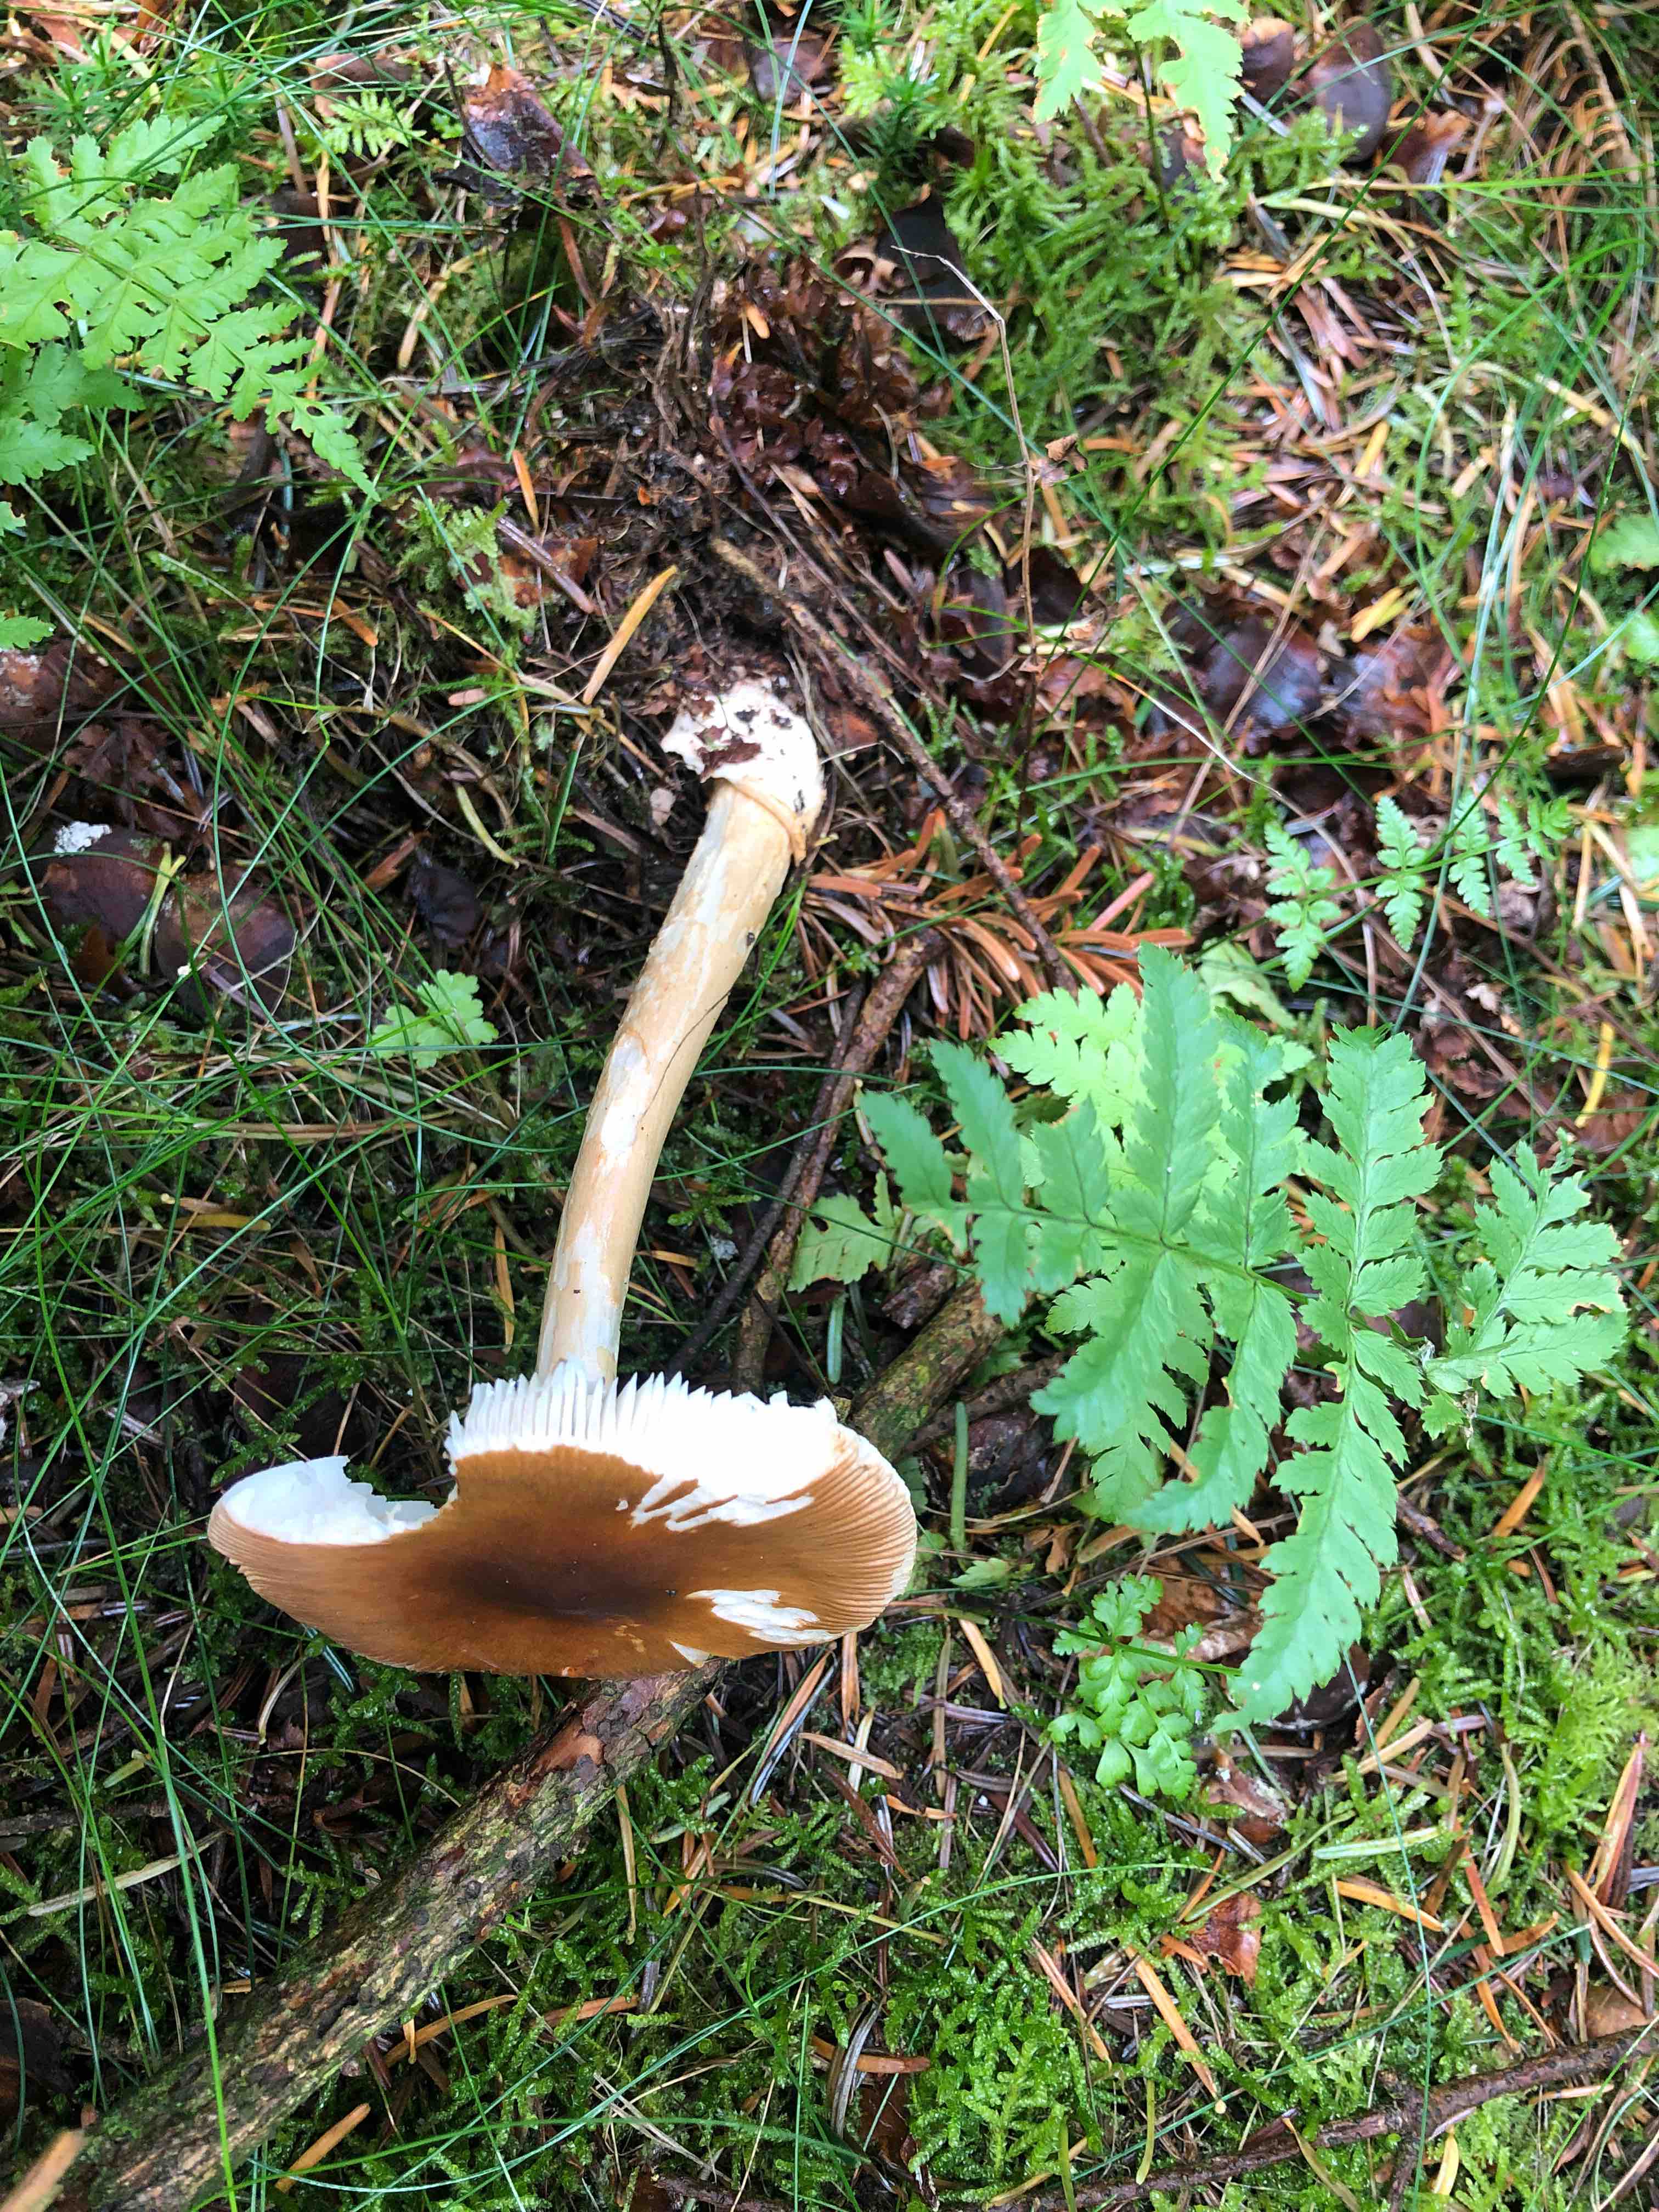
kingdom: Fungi
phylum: Basidiomycota
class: Agaricomycetes
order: Agaricales
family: Amanitaceae
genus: Amanita
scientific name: Amanita fulva
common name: brun kam-fluesvamp
